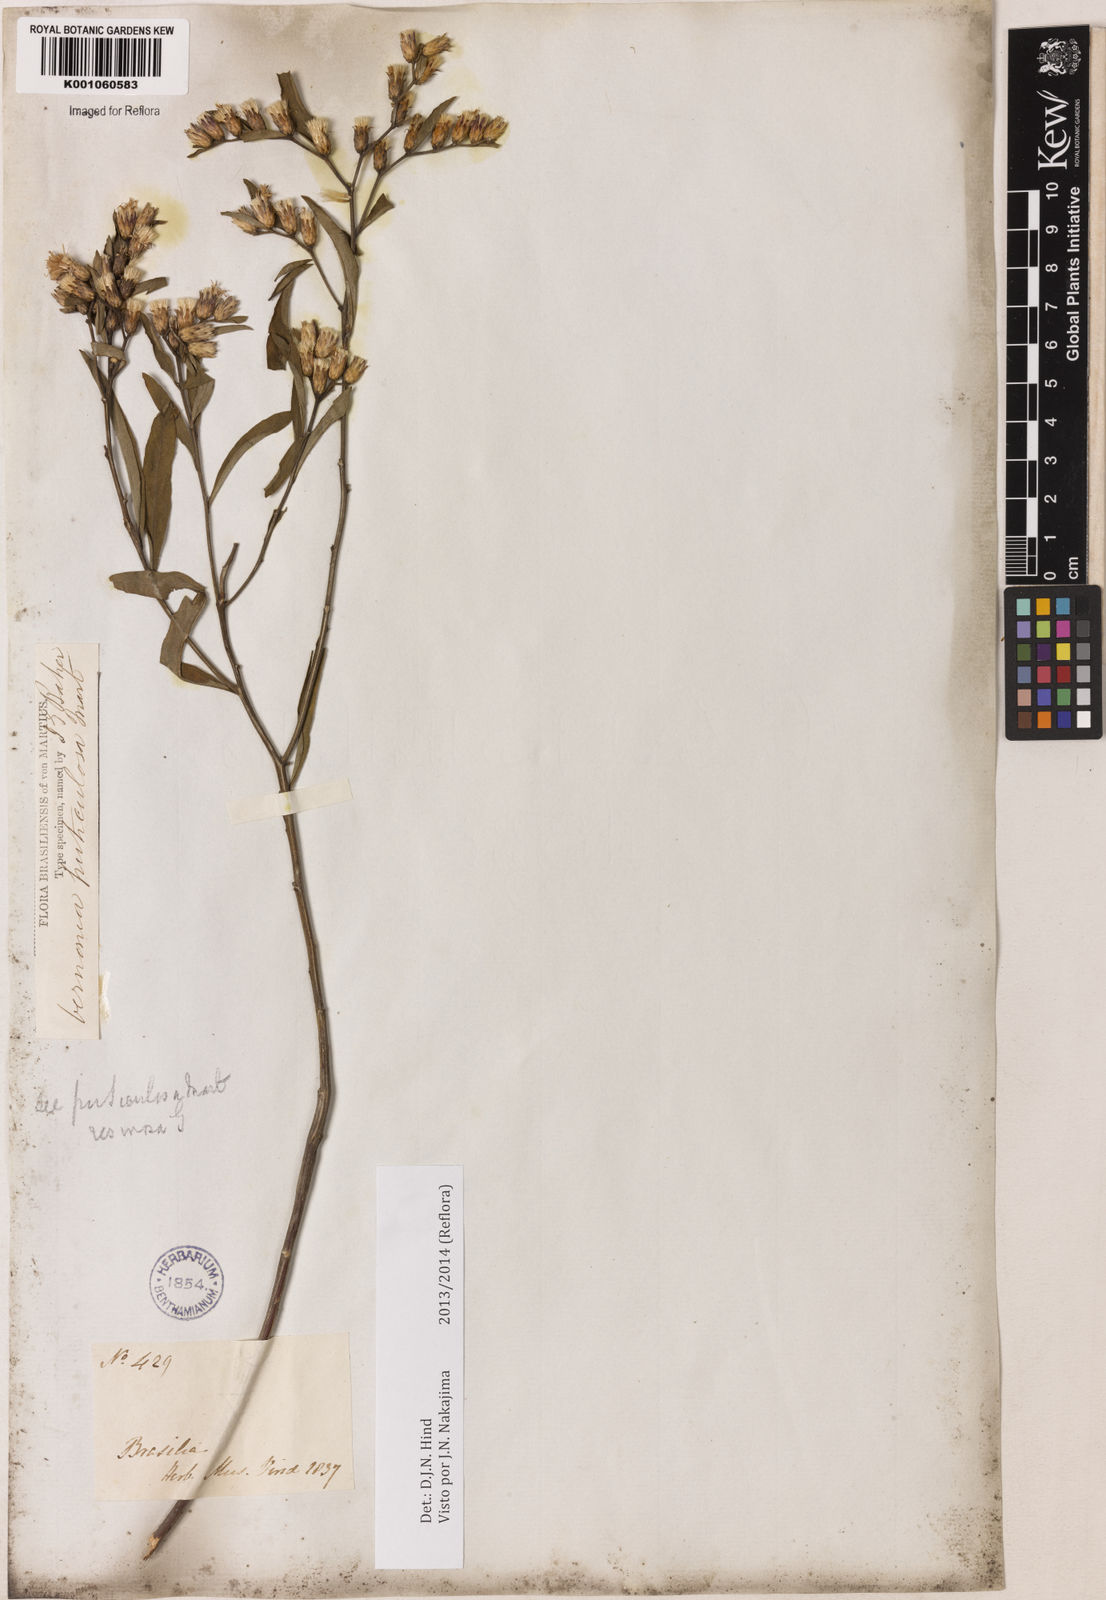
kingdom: Plantae
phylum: Tracheophyta
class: Magnoliopsida
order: Asterales
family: Asteraceae
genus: Lepidaploa
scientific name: Lepidaploa rufogrisea
